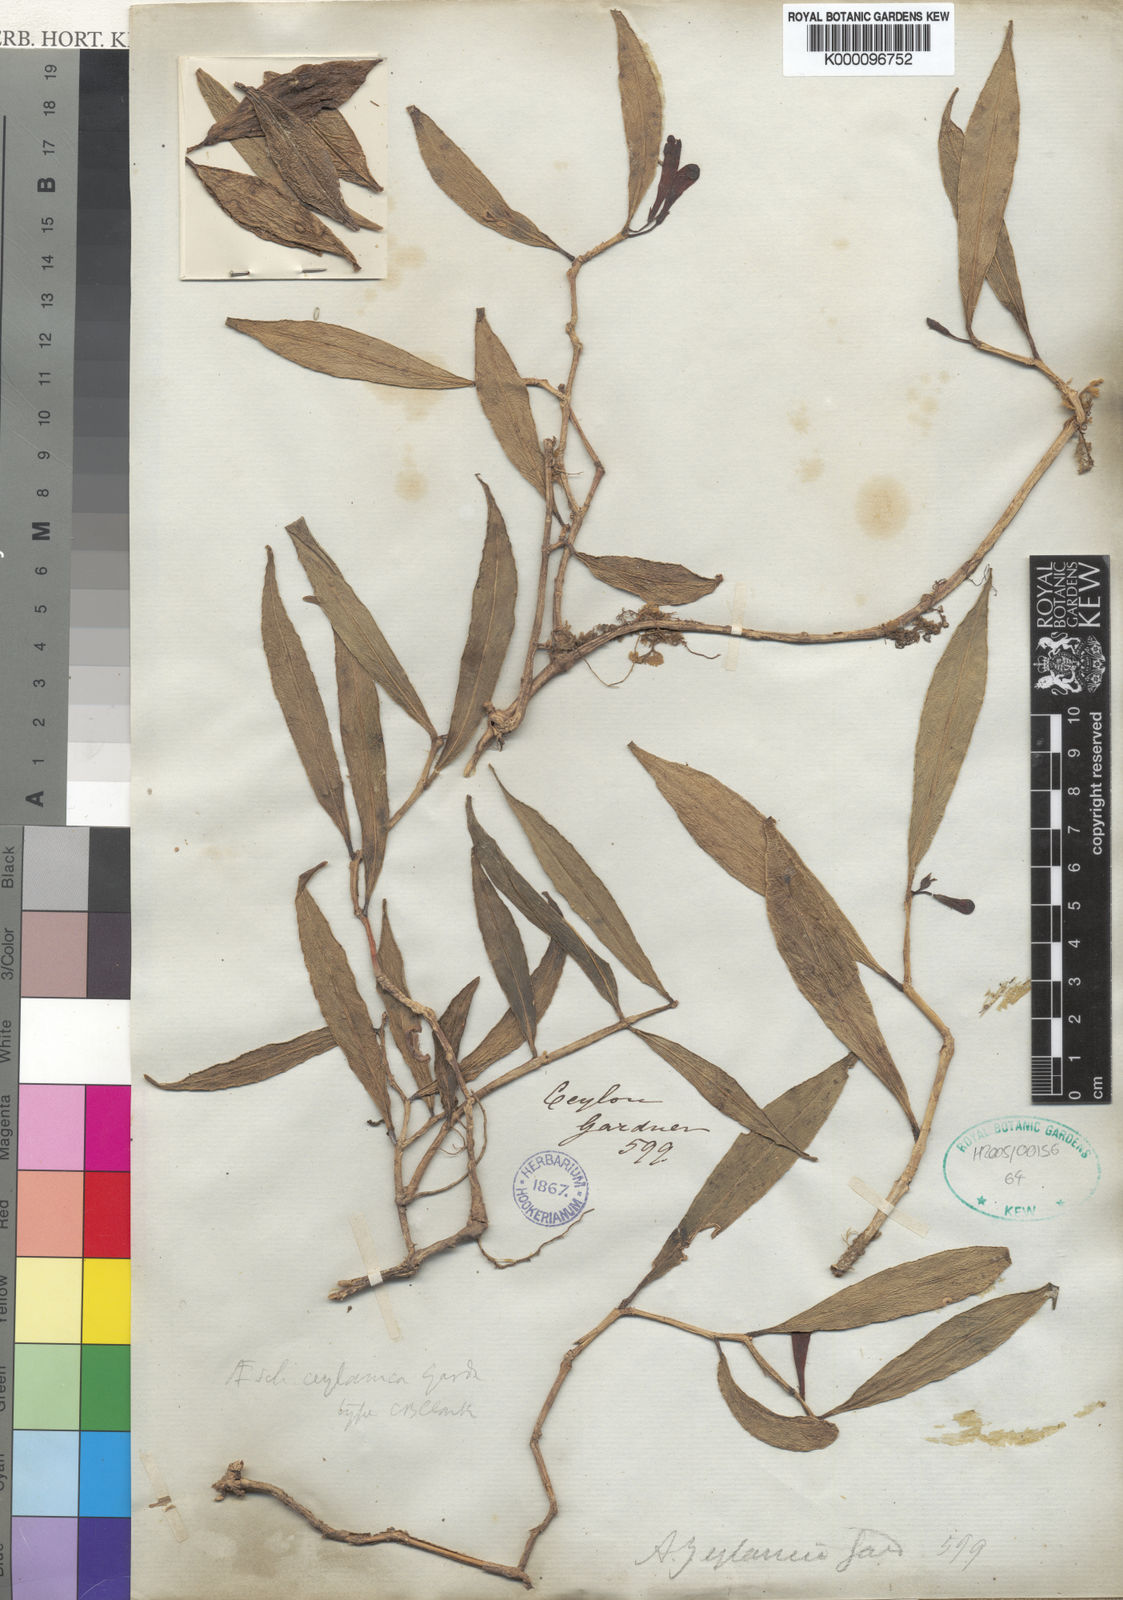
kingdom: Plantae
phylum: Tracheophyta
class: Magnoliopsida
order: Lamiales
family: Gesneriaceae
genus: Aeschynanthus
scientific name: Aeschynanthus
